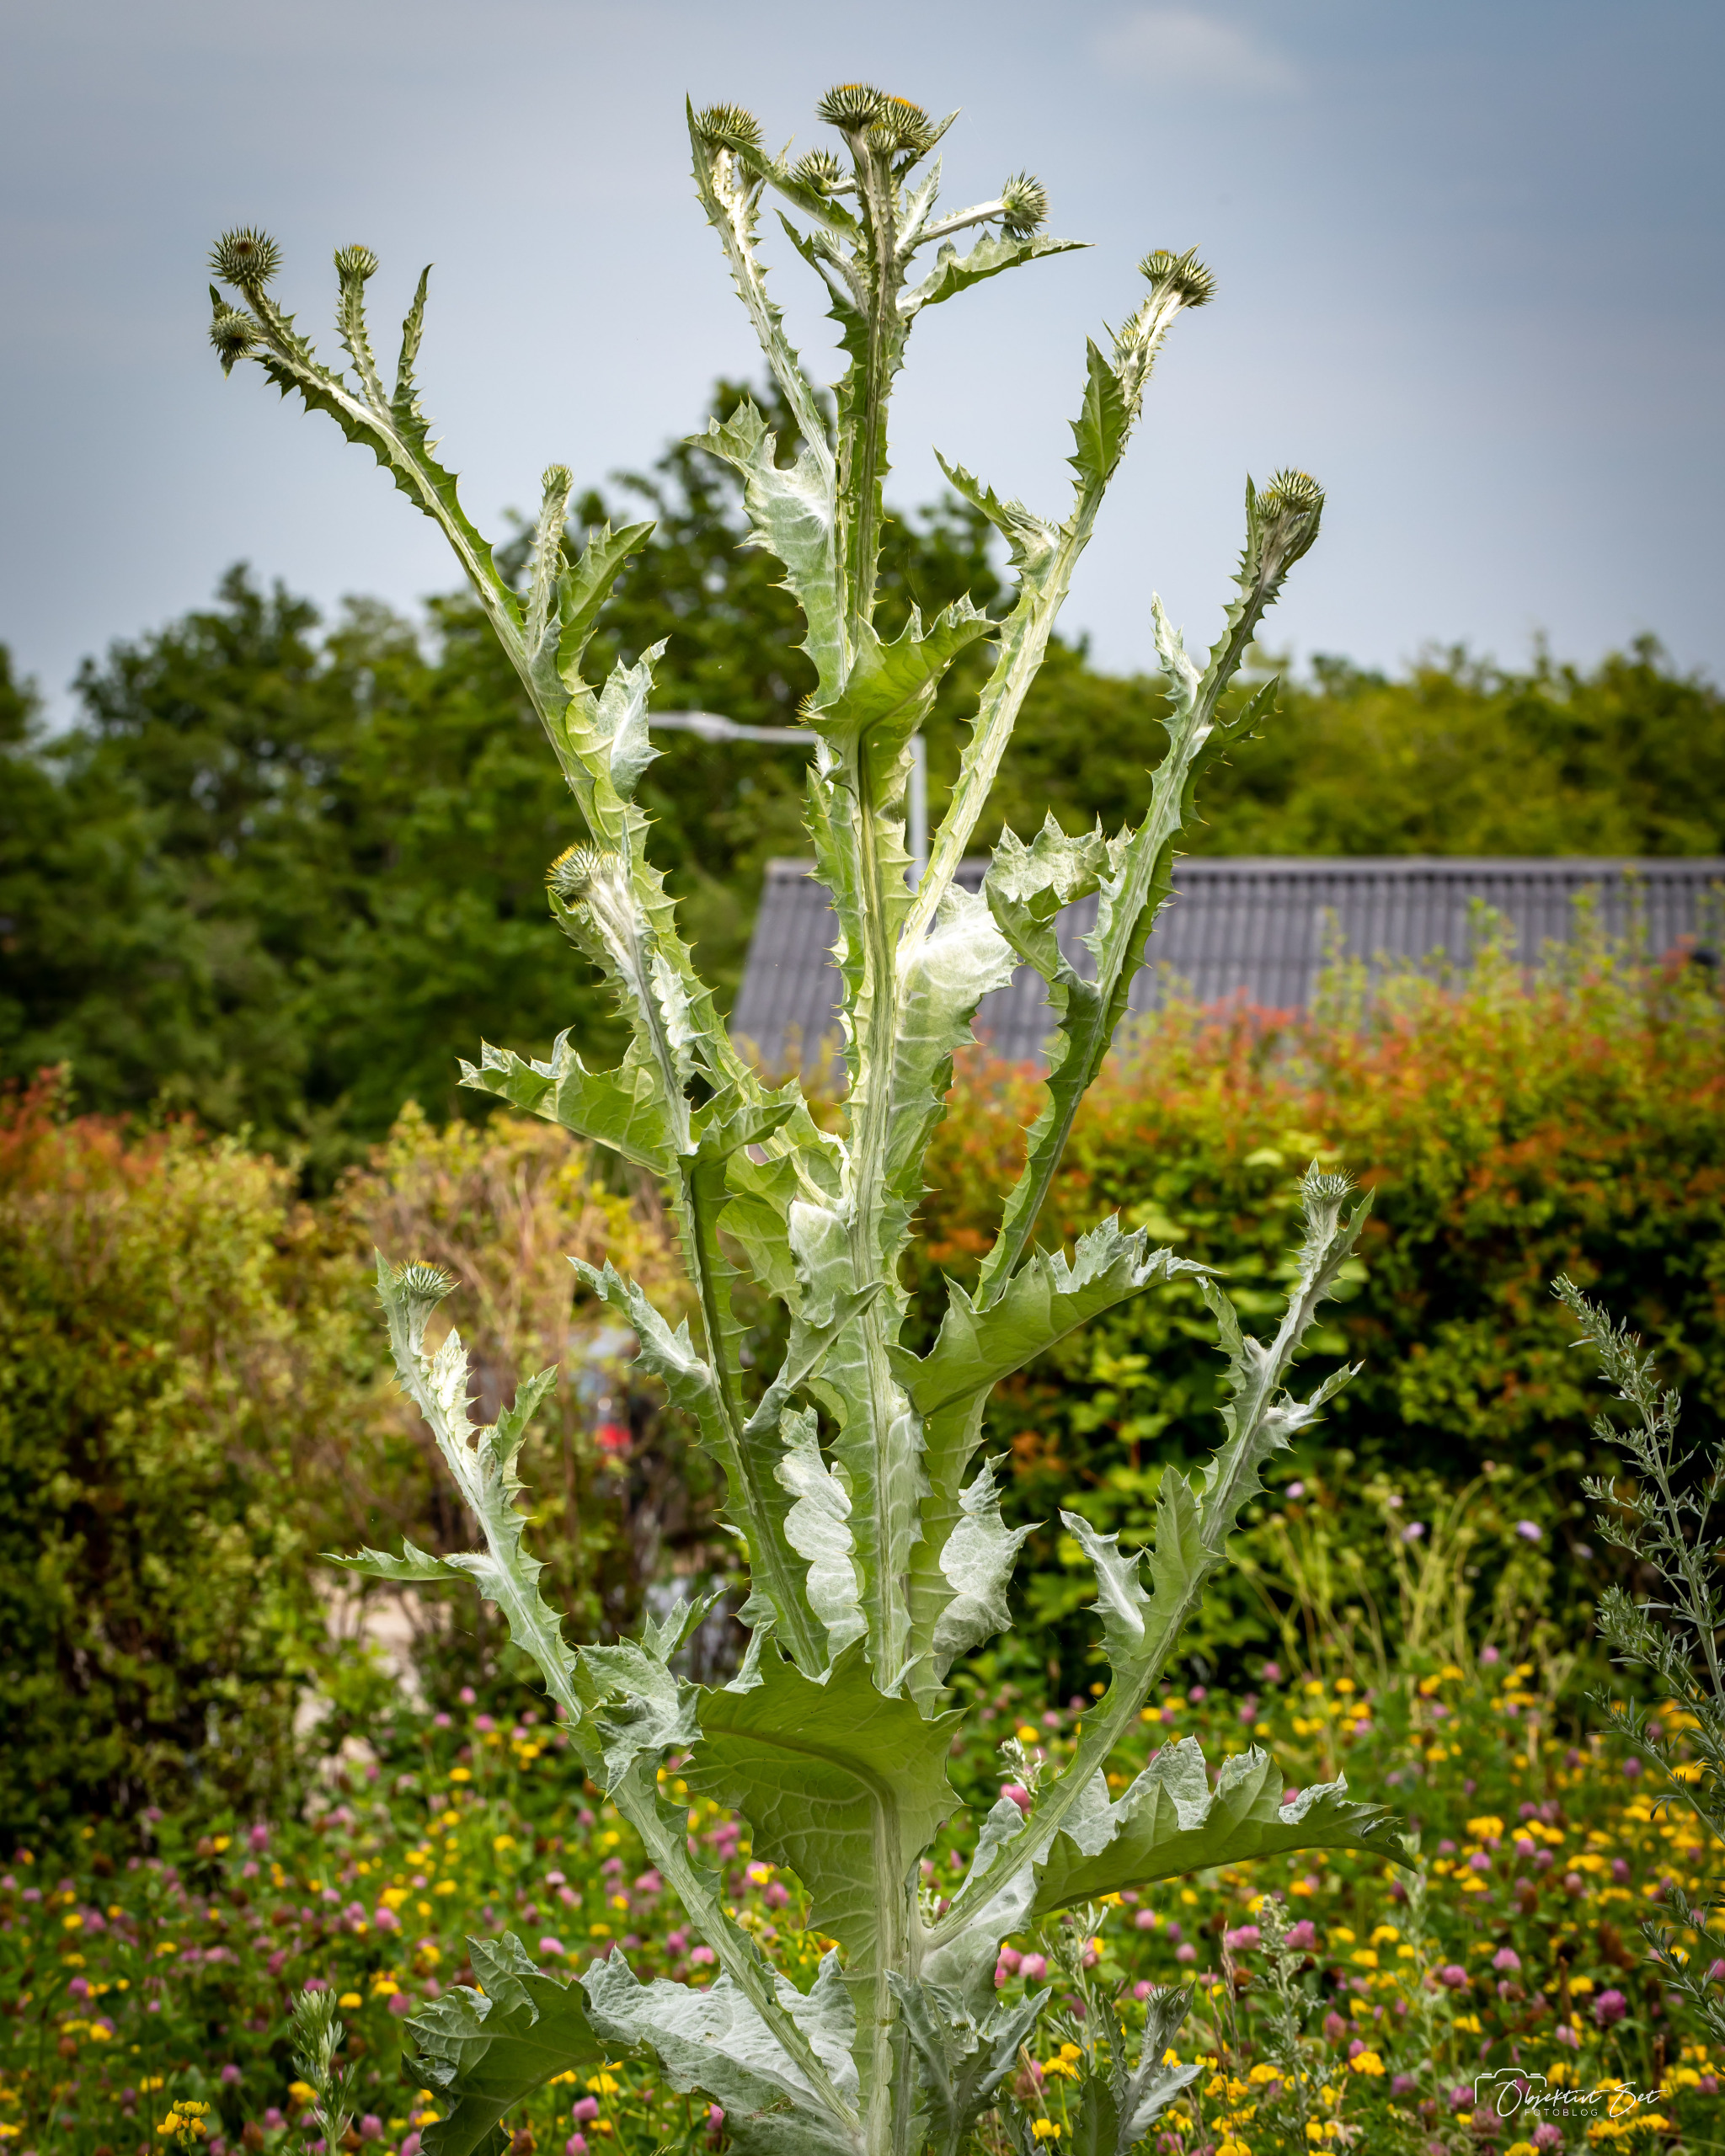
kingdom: Plantae
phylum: Tracheophyta
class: Magnoliopsida
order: Asterales
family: Asteraceae
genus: Onopordum
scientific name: Onopordum acanthium
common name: Æselfoder
